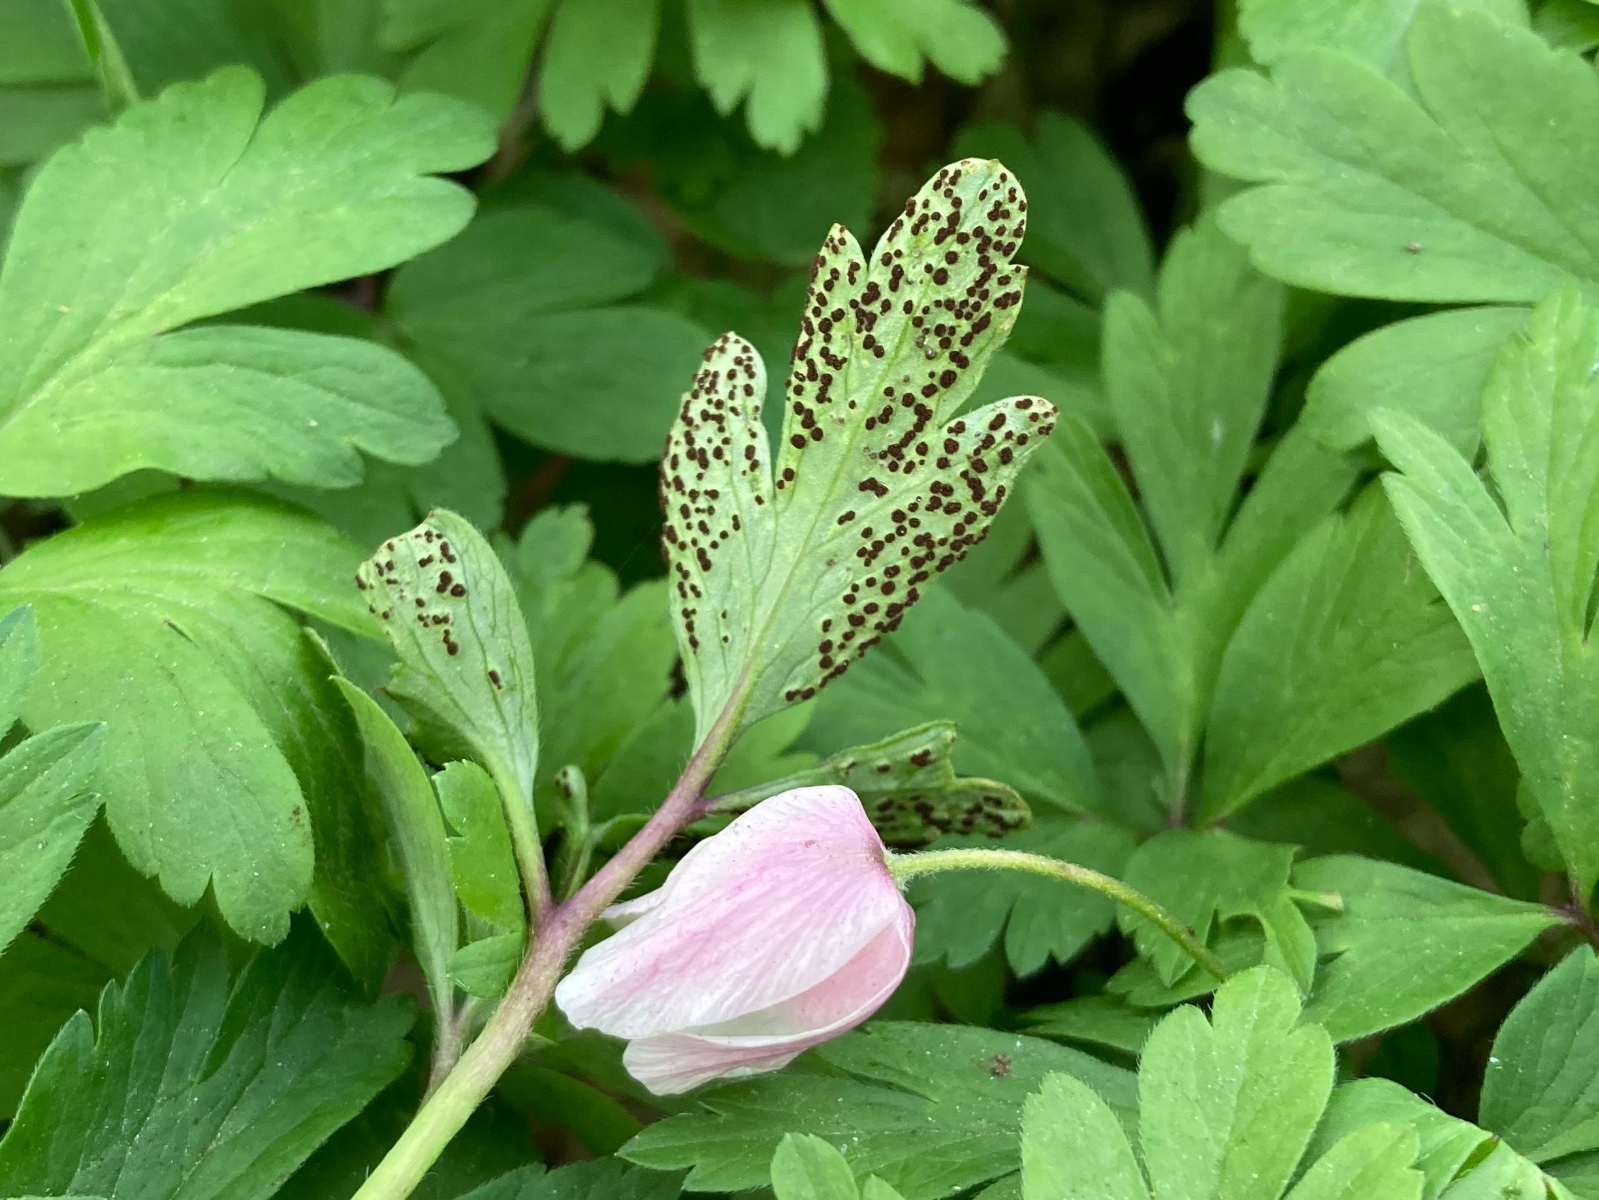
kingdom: Fungi
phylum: Basidiomycota
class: Pucciniomycetes
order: Pucciniales
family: Tranzscheliaceae
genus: Tranzschelia
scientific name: Tranzschelia anemones
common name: anemone-knæksporerust
